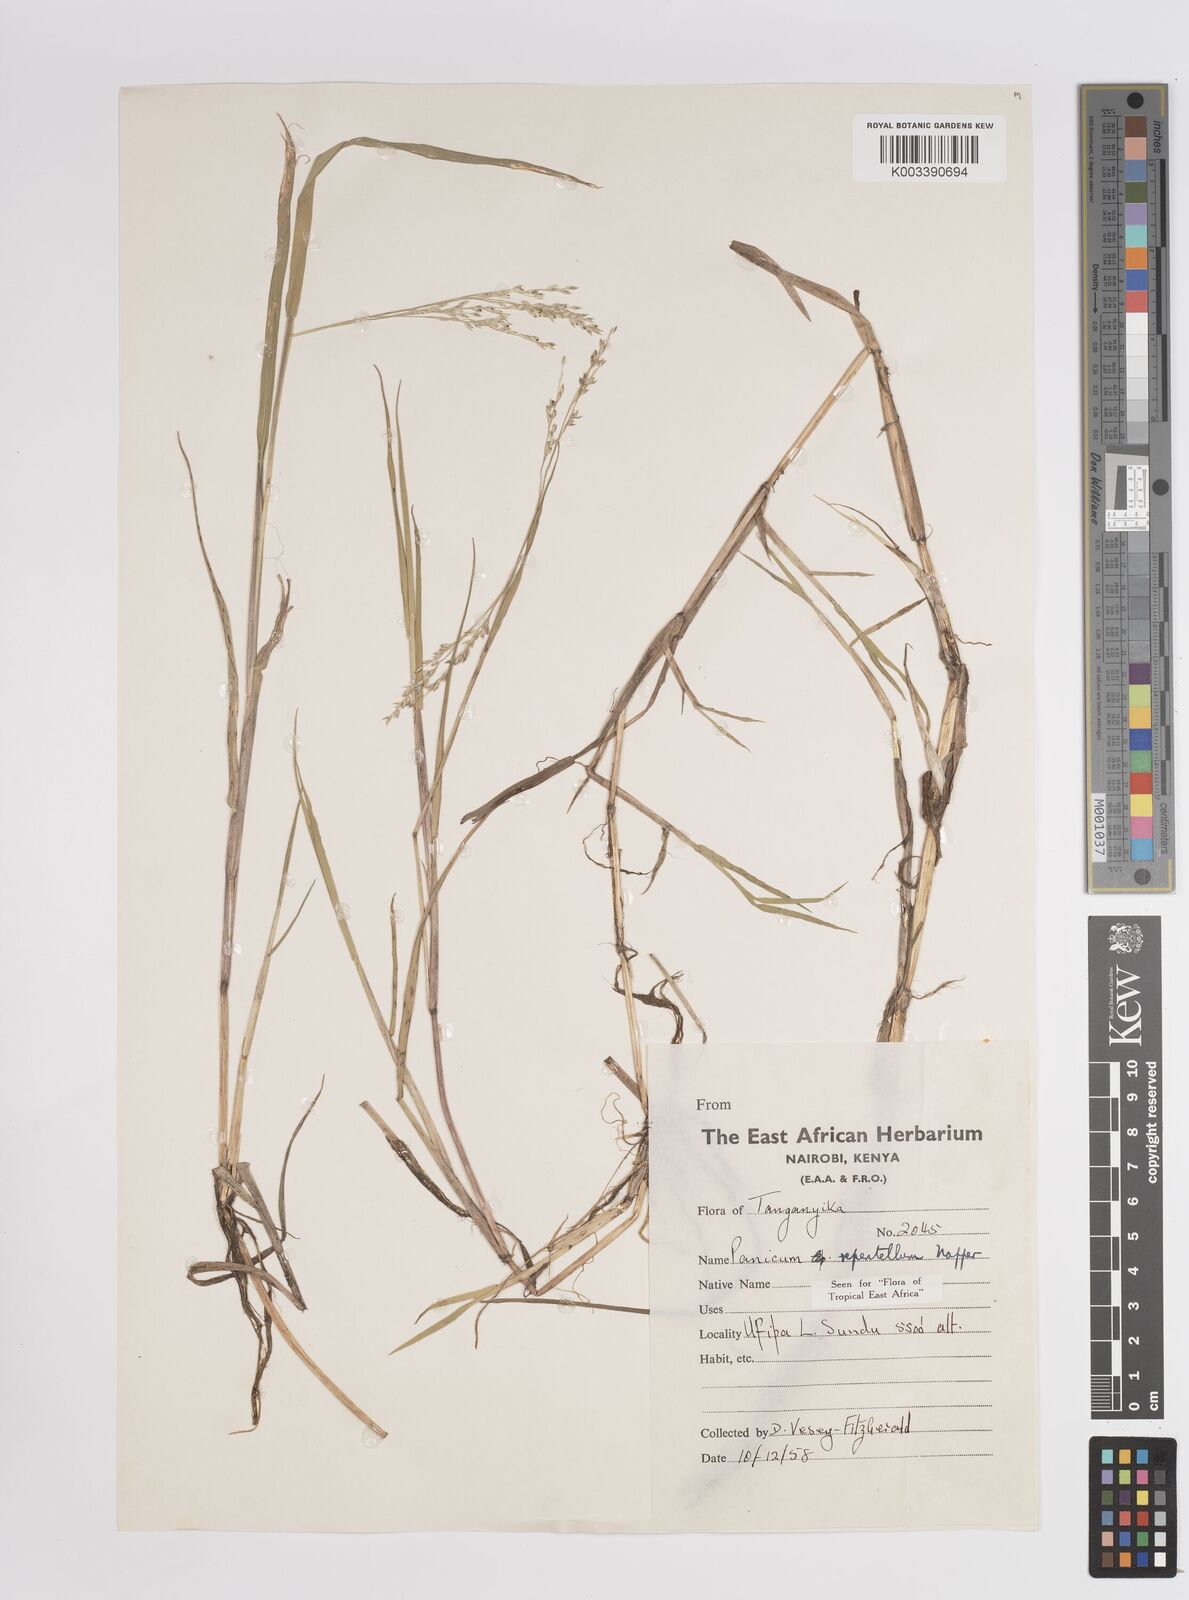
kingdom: Plantae
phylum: Tracheophyta
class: Liliopsida
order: Poales
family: Poaceae
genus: Panicum
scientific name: Panicum hygrocharis
